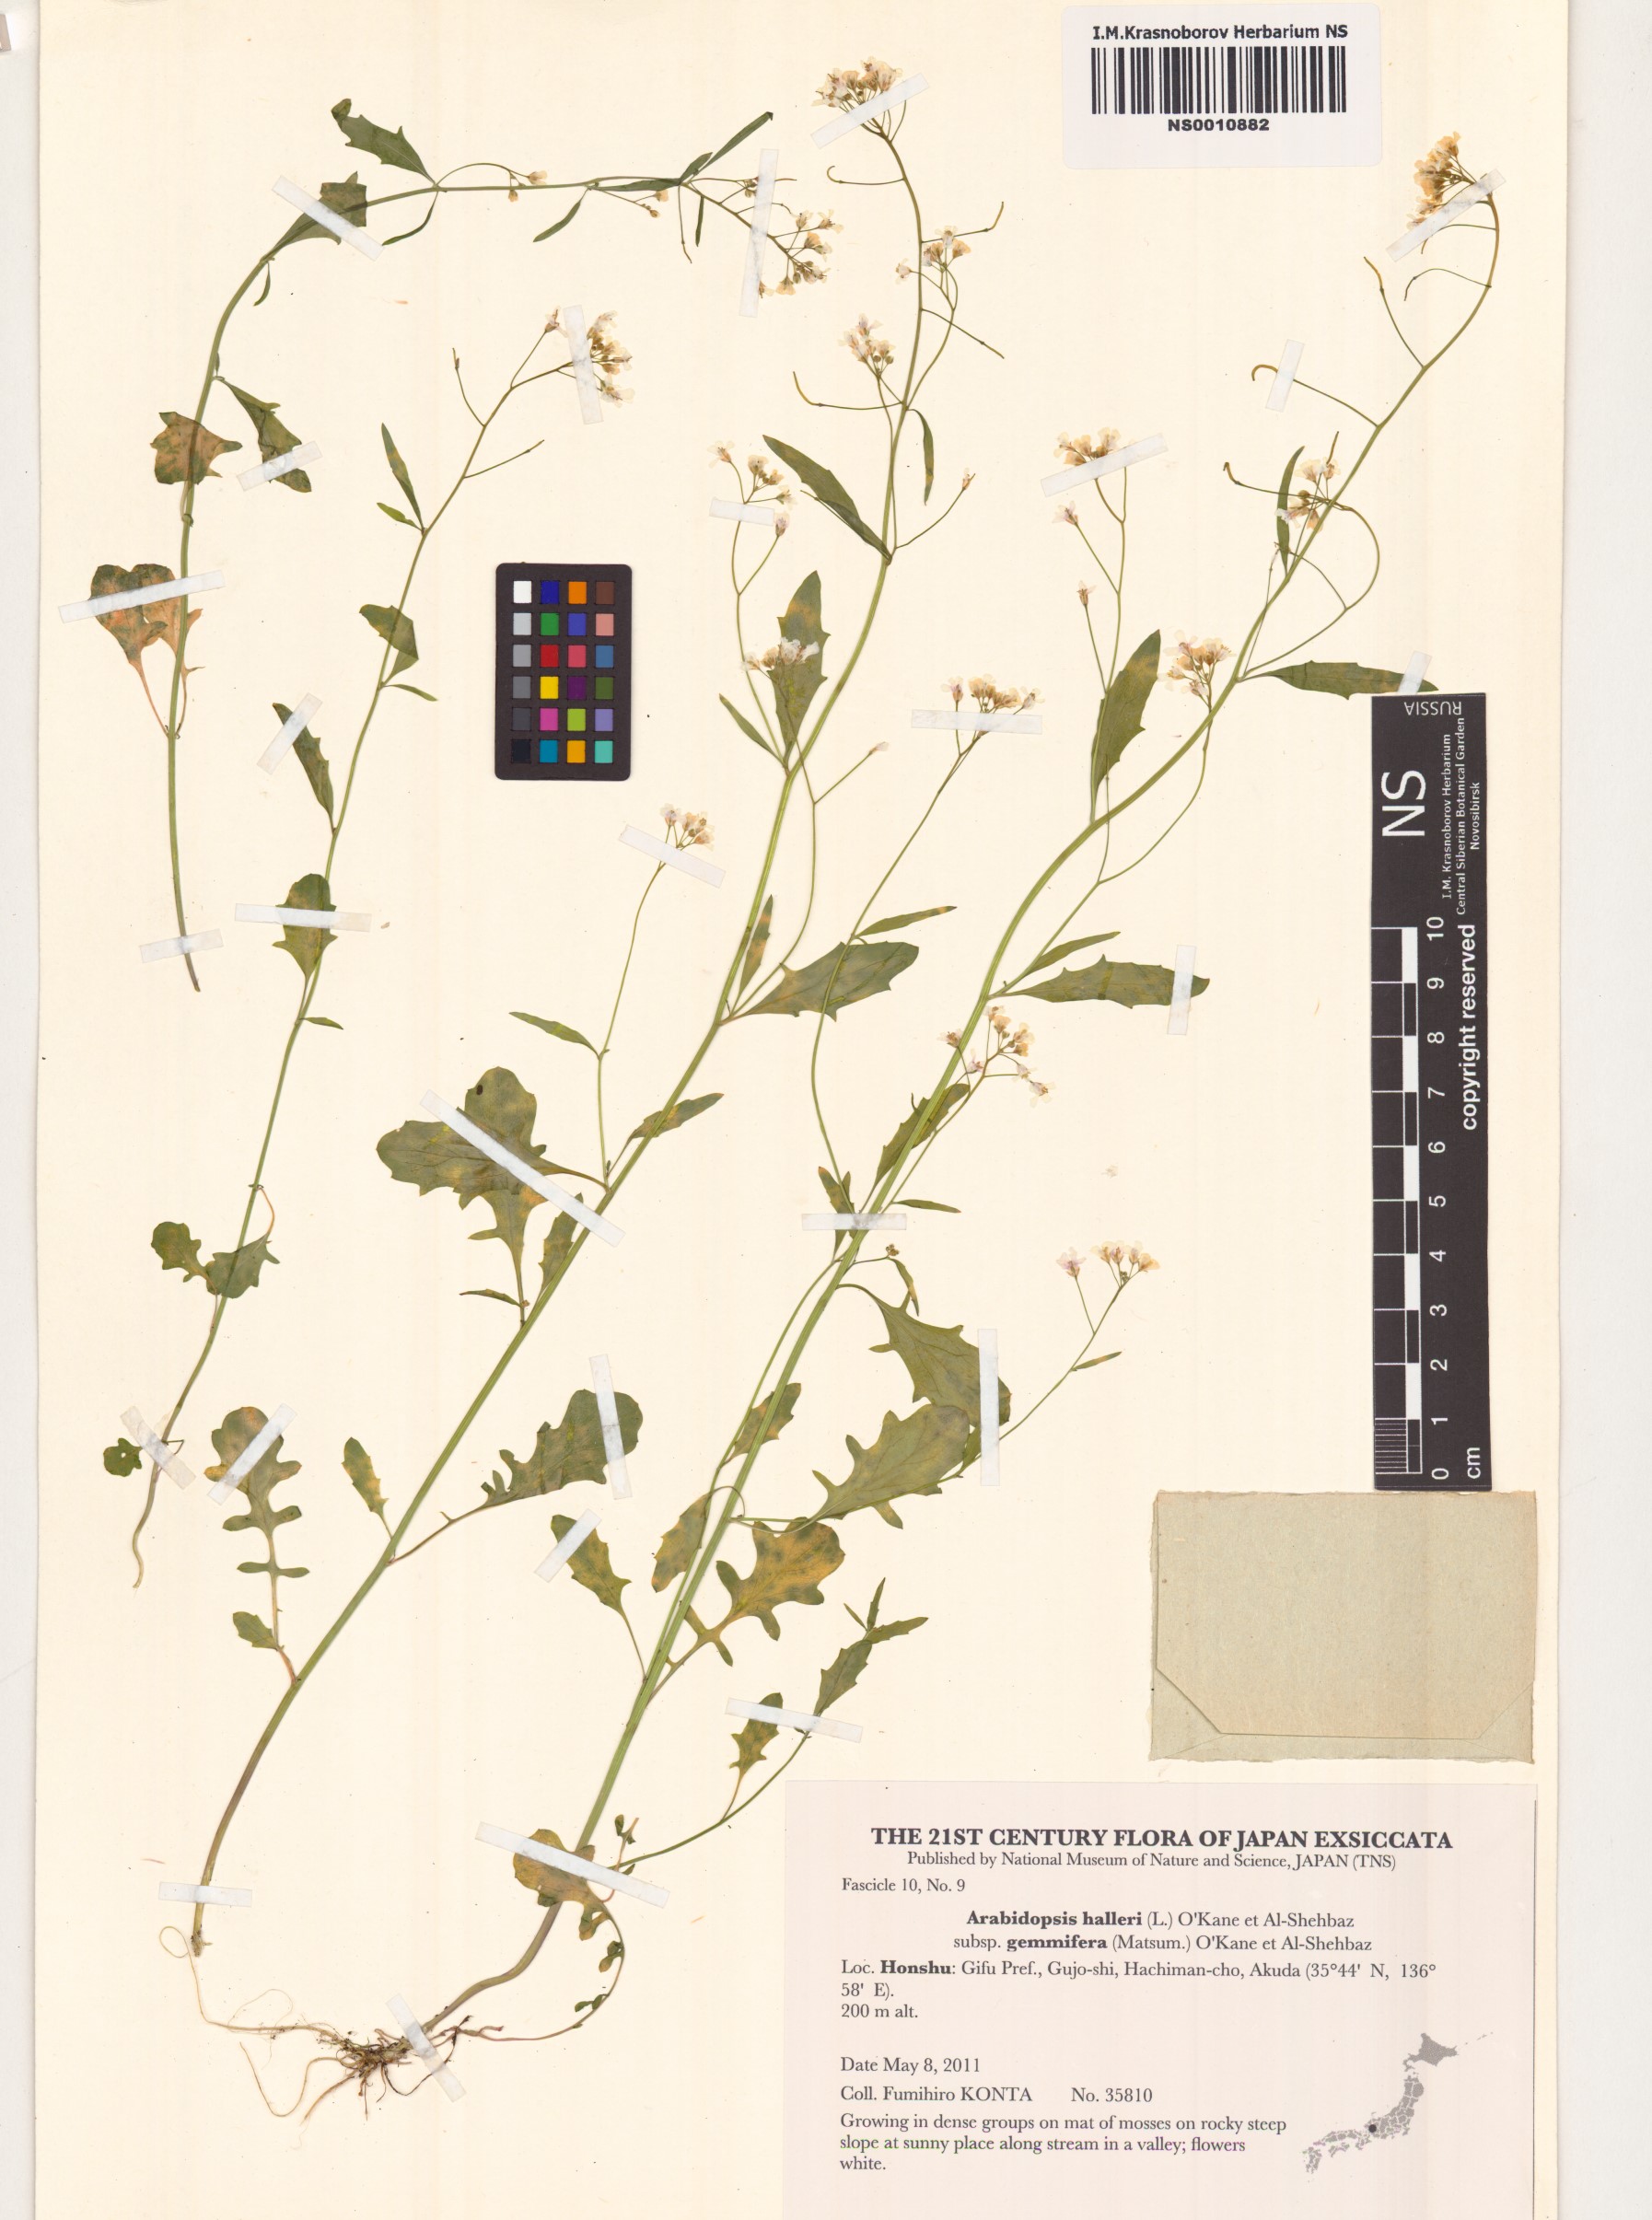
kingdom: Plantae
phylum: Tracheophyta
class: Magnoliopsida
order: Brassicales
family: Brassicaceae
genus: Arabidopsis
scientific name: Arabidopsis halleri
